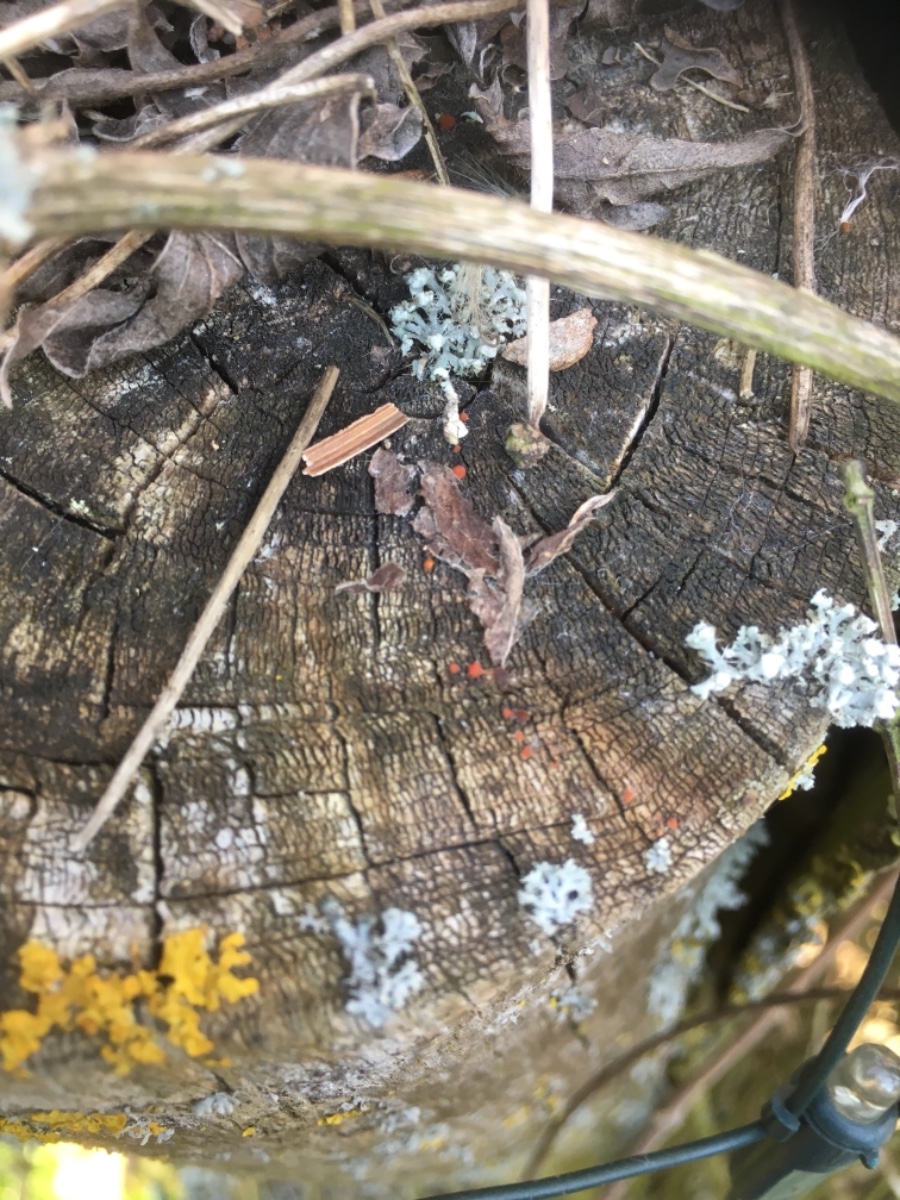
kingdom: Fungi
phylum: Basidiomycota
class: Dacrymycetes
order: Dacrymycetales
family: Dacrymycetaceae
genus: Dacrymyces
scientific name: Dacrymyces stillatus
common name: almindelig tåresvamp
